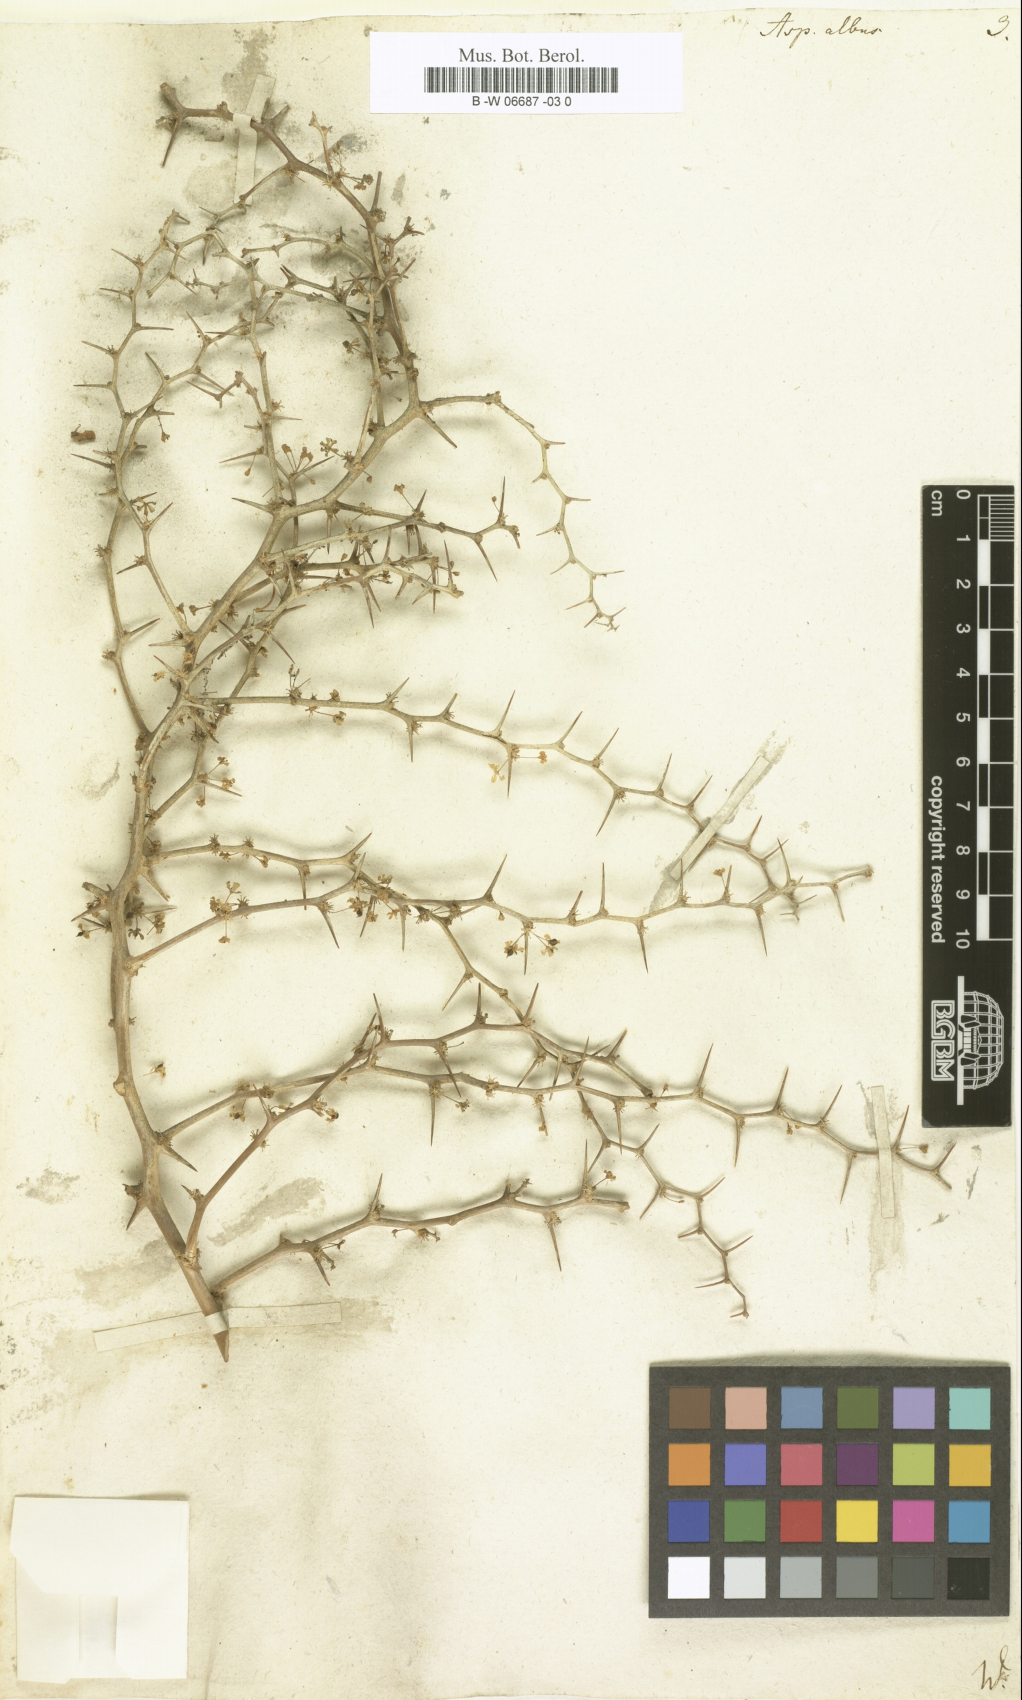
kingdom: Plantae
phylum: Tracheophyta
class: Liliopsida
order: Asparagales
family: Asparagaceae
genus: Asparagus
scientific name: Asparagus albus
